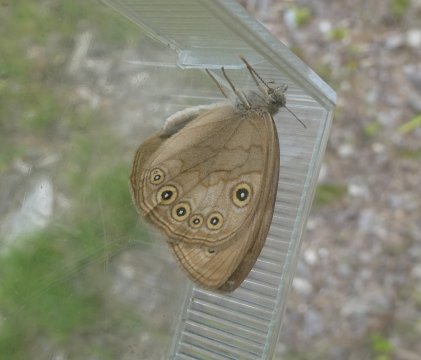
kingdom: Animalia
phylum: Arthropoda
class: Insecta
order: Lepidoptera
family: Nymphalidae
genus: Lethe
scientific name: Lethe eurydice
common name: Eyed Brown
